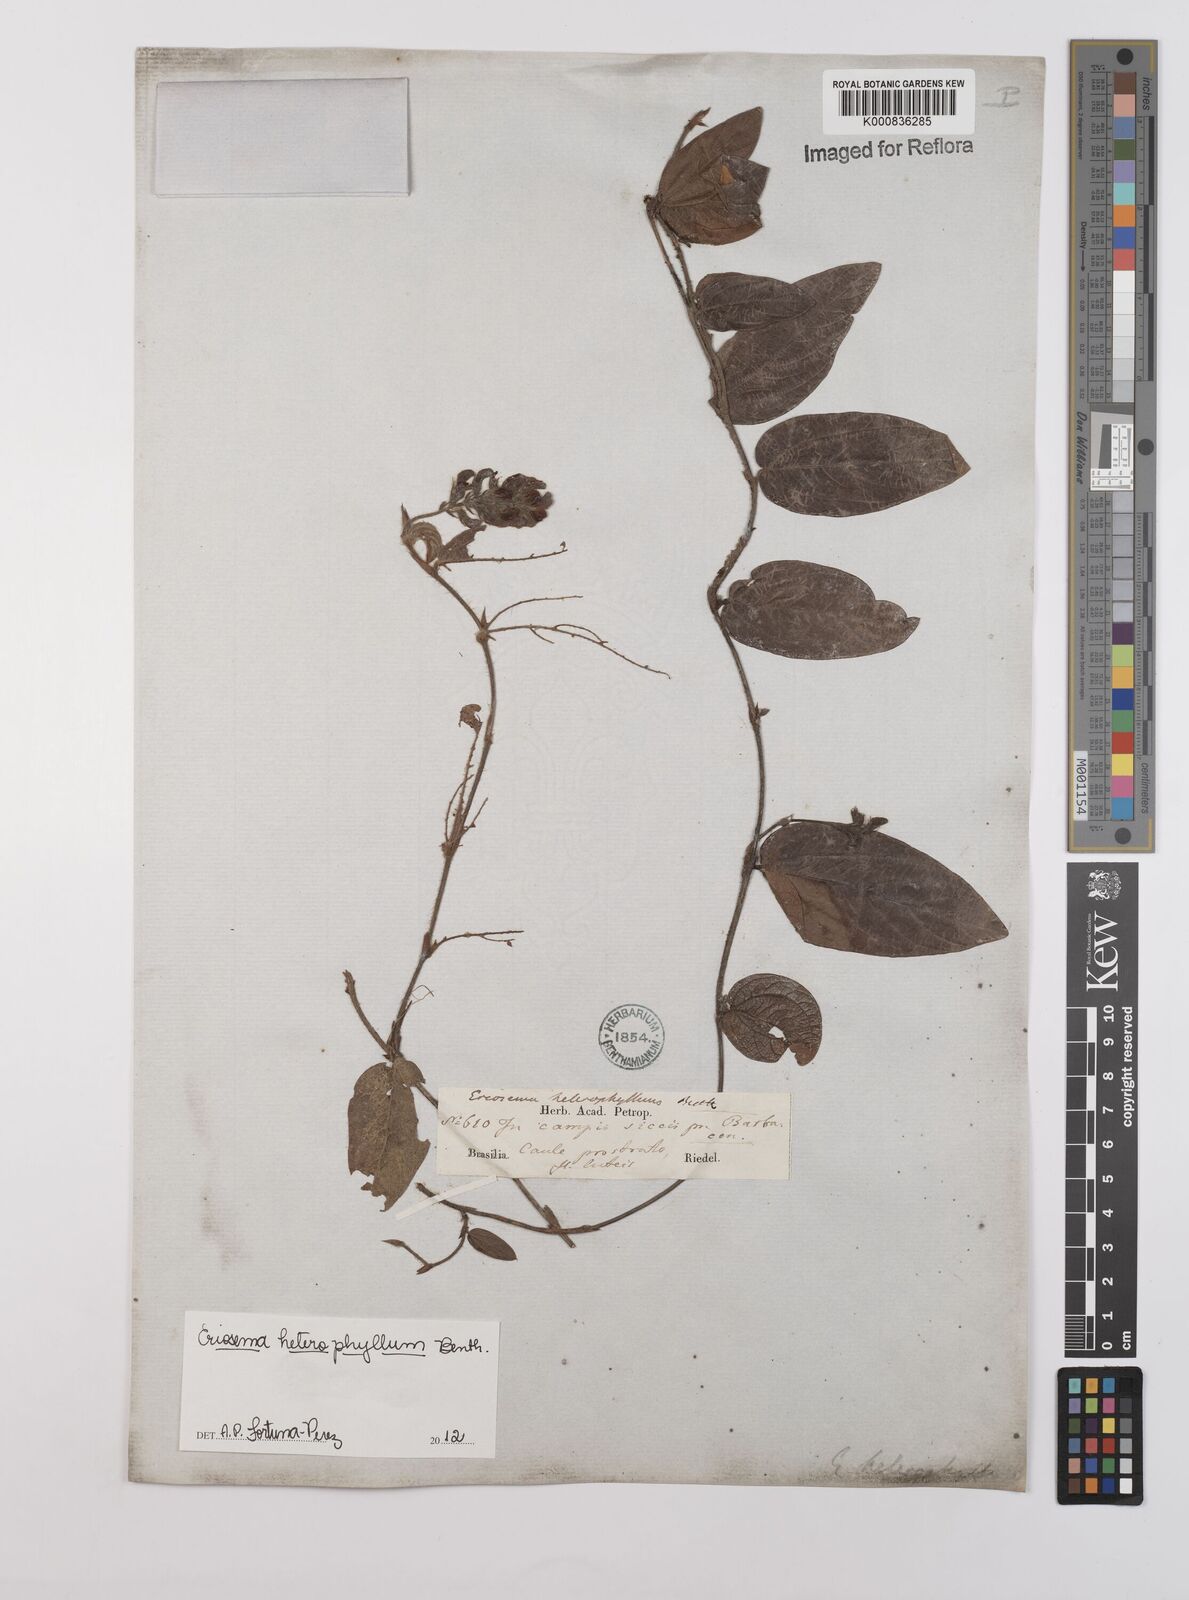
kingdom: Plantae
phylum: Tracheophyta
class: Magnoliopsida
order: Fabales
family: Fabaceae
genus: Eriosema
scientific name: Eriosema heterophyllum
